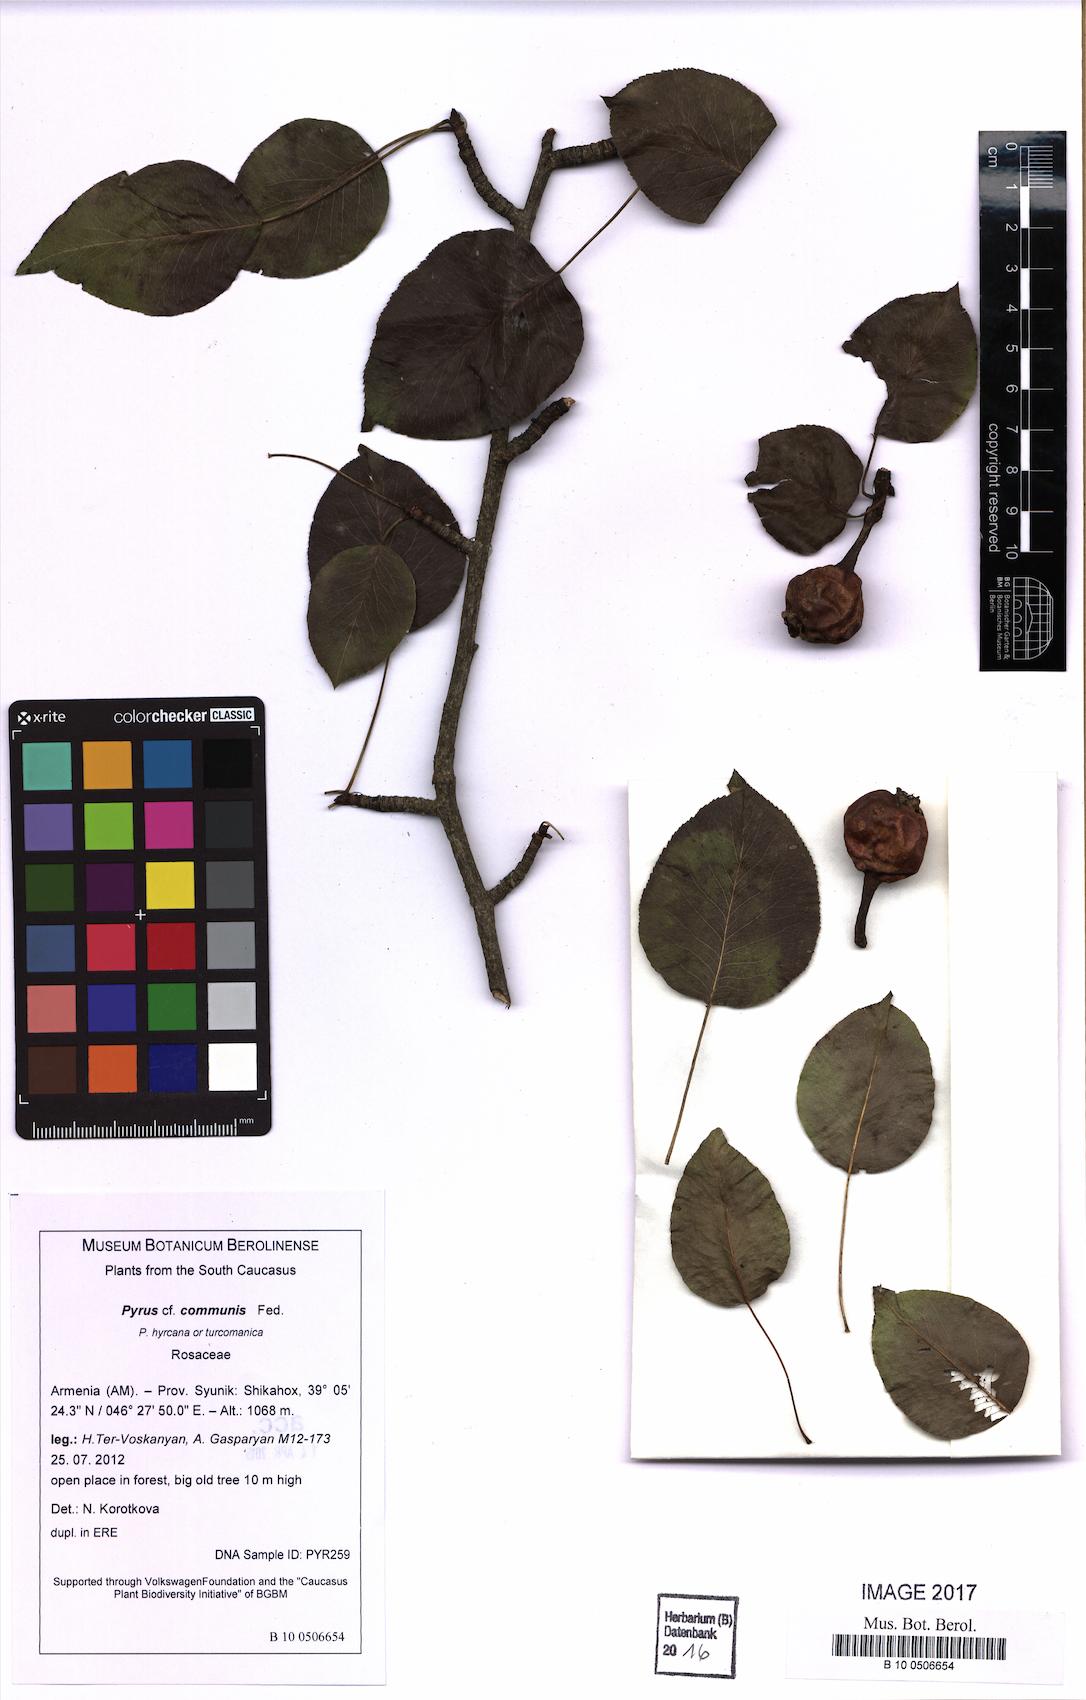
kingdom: Plantae
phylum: Tracheophyta
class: Magnoliopsida
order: Rosales
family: Rosaceae
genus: Pyrus
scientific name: Pyrus communis
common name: Pear
